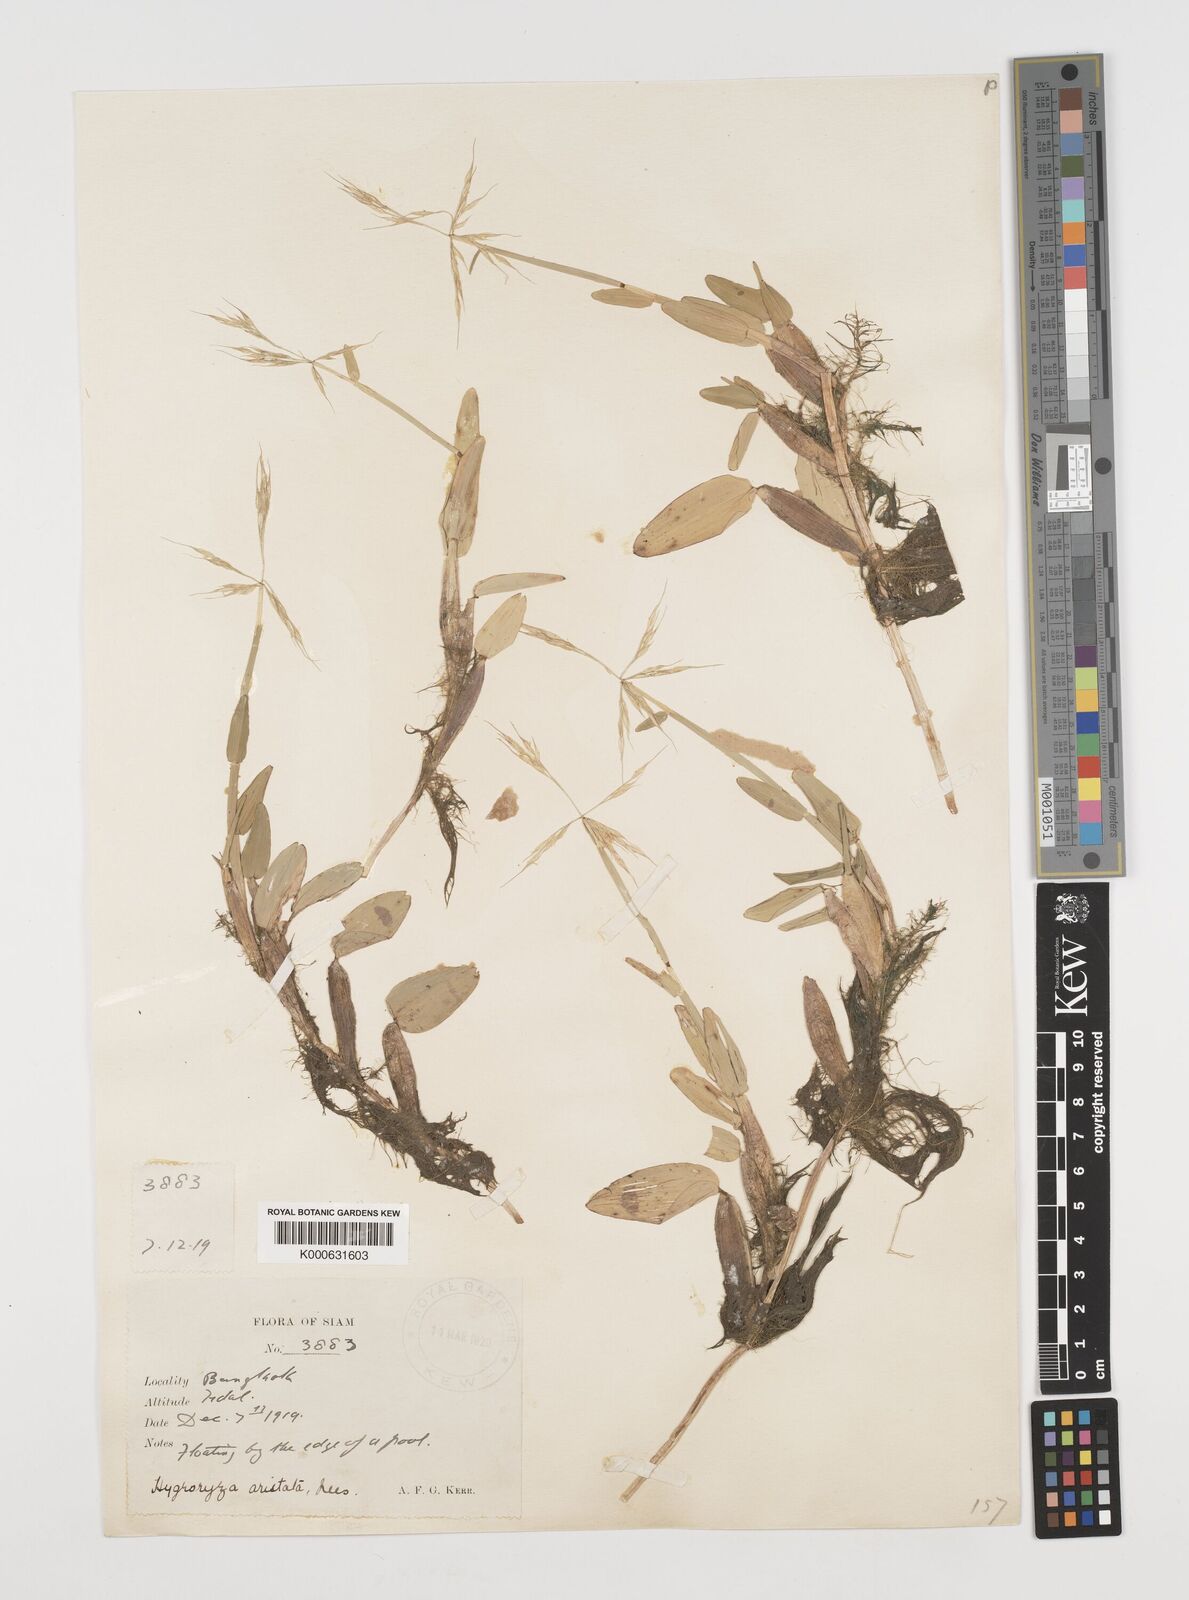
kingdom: Plantae
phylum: Tracheophyta
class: Liliopsida
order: Poales
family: Poaceae
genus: Hygroryza
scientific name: Hygroryza
